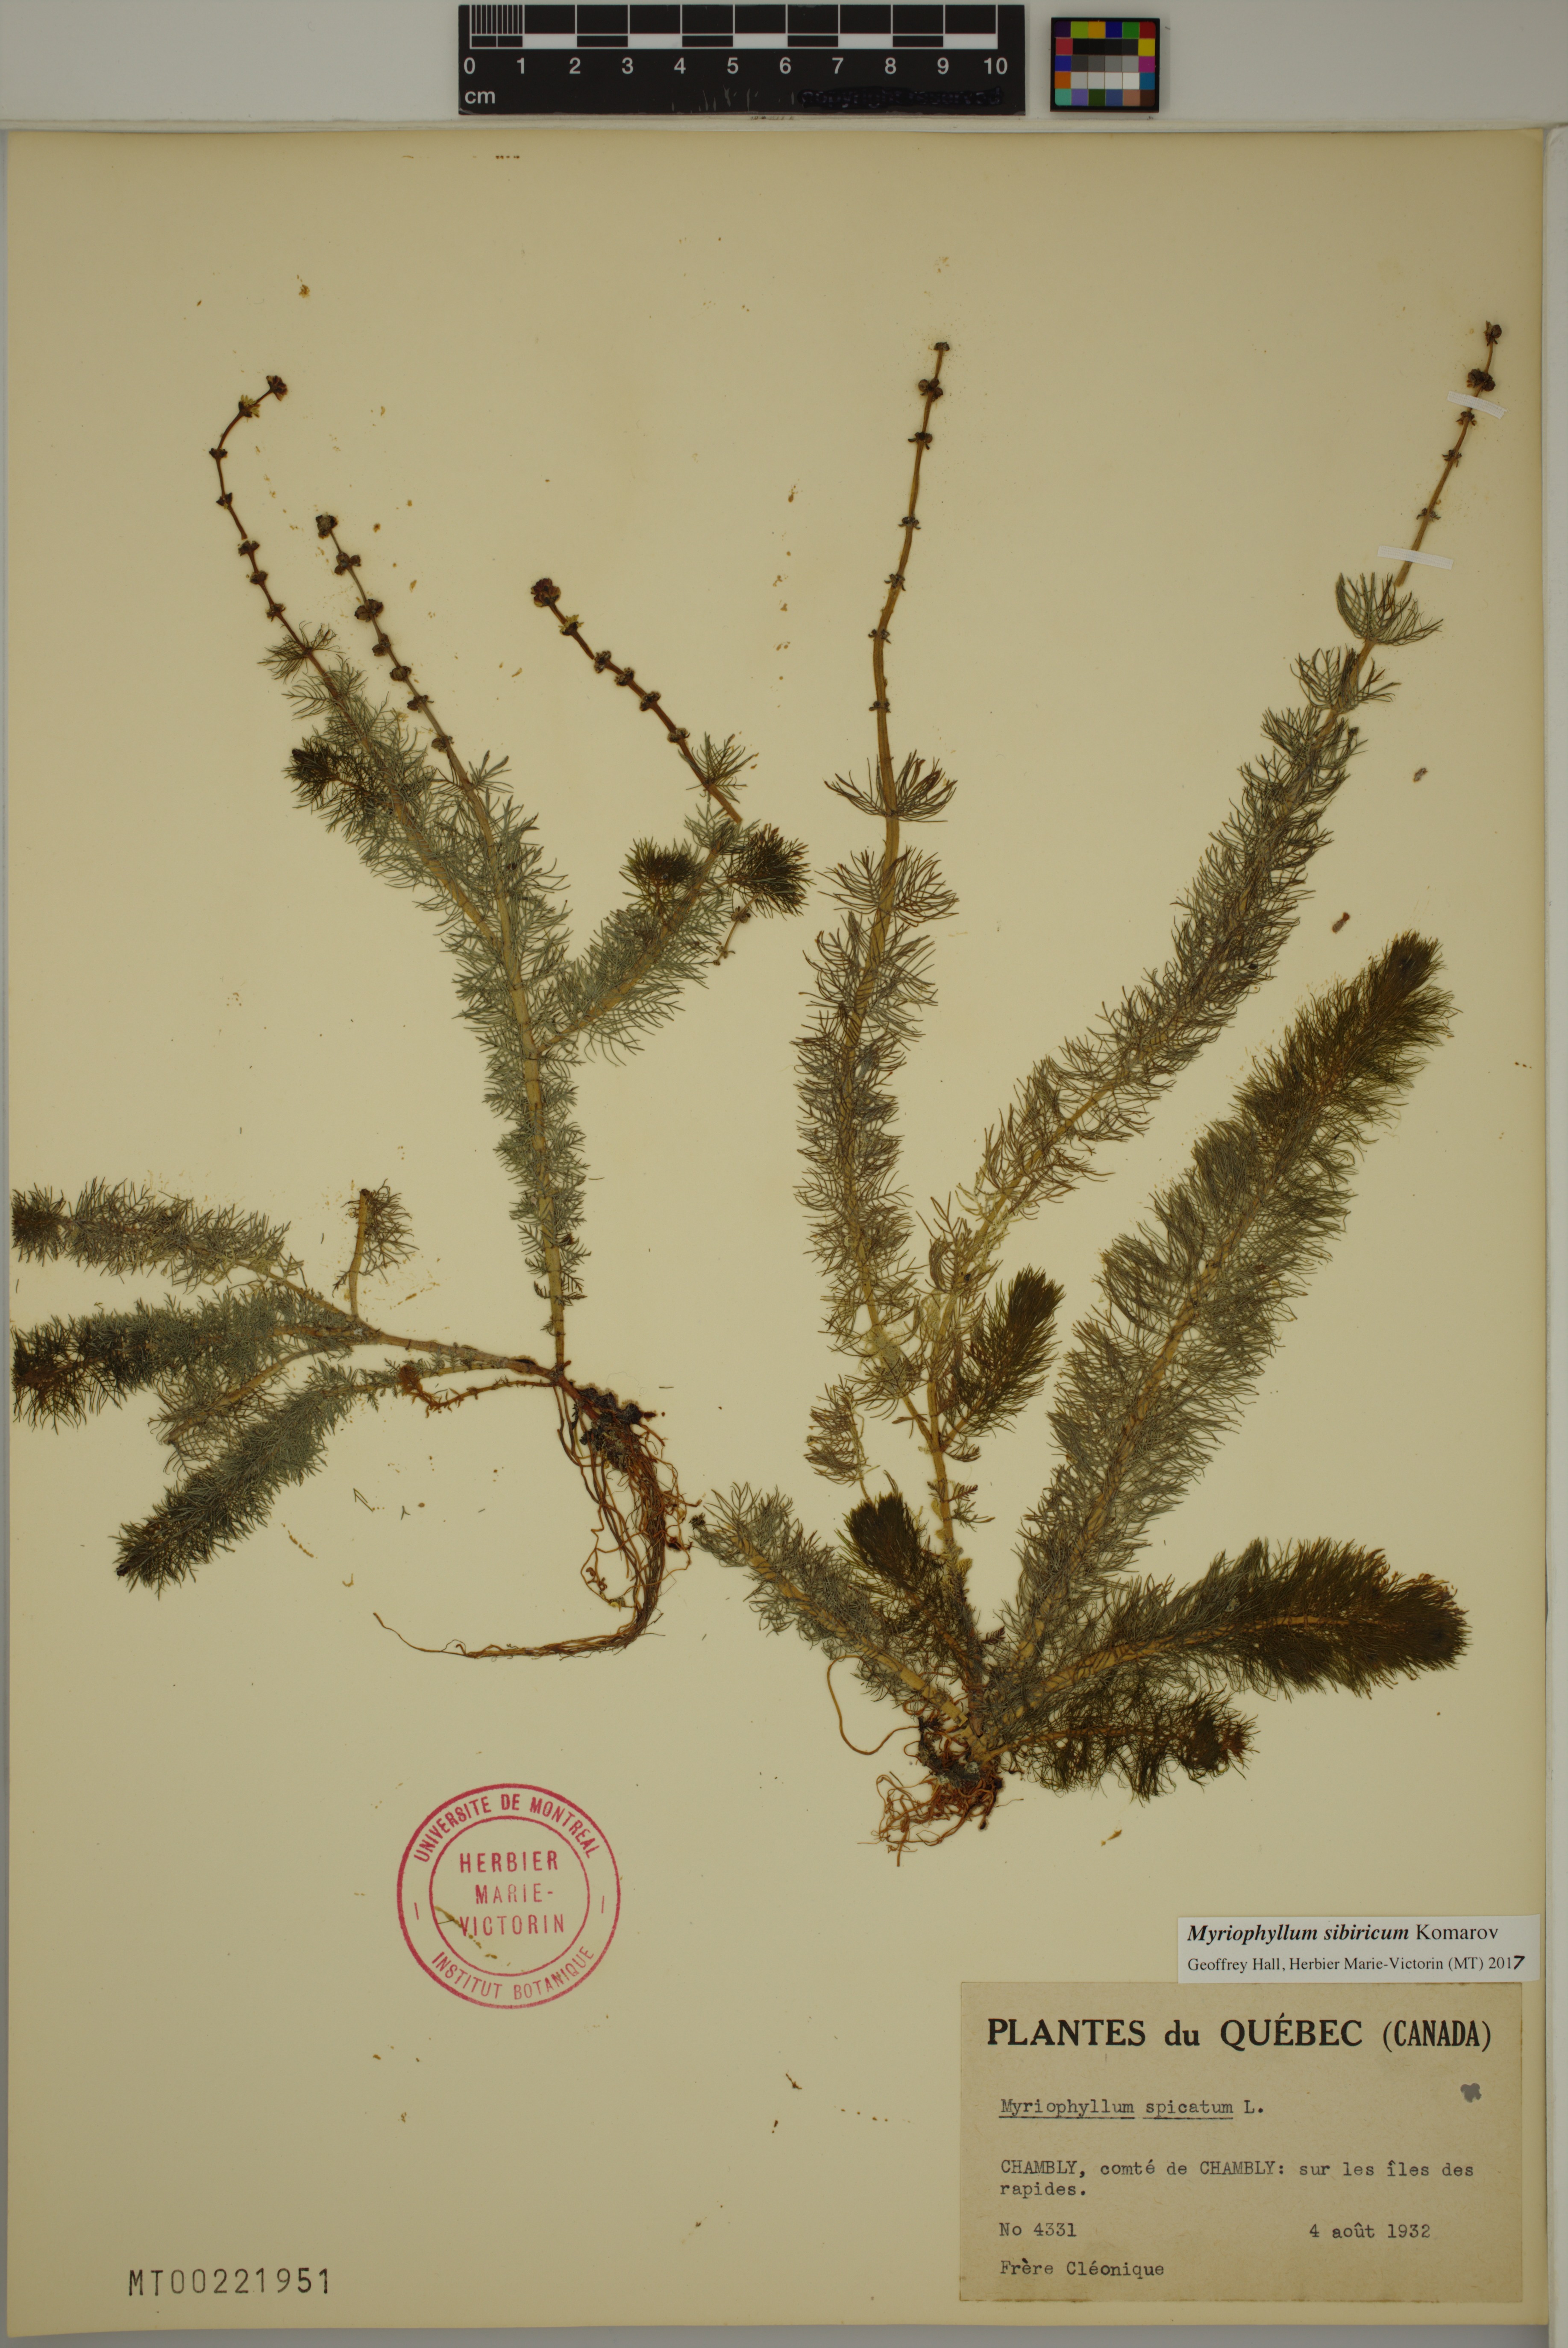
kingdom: Plantae
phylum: Tracheophyta
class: Magnoliopsida
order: Saxifragales
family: Haloragaceae
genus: Myriophyllum
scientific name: Myriophyllum sibiricum
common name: Siberian water-milfoil
